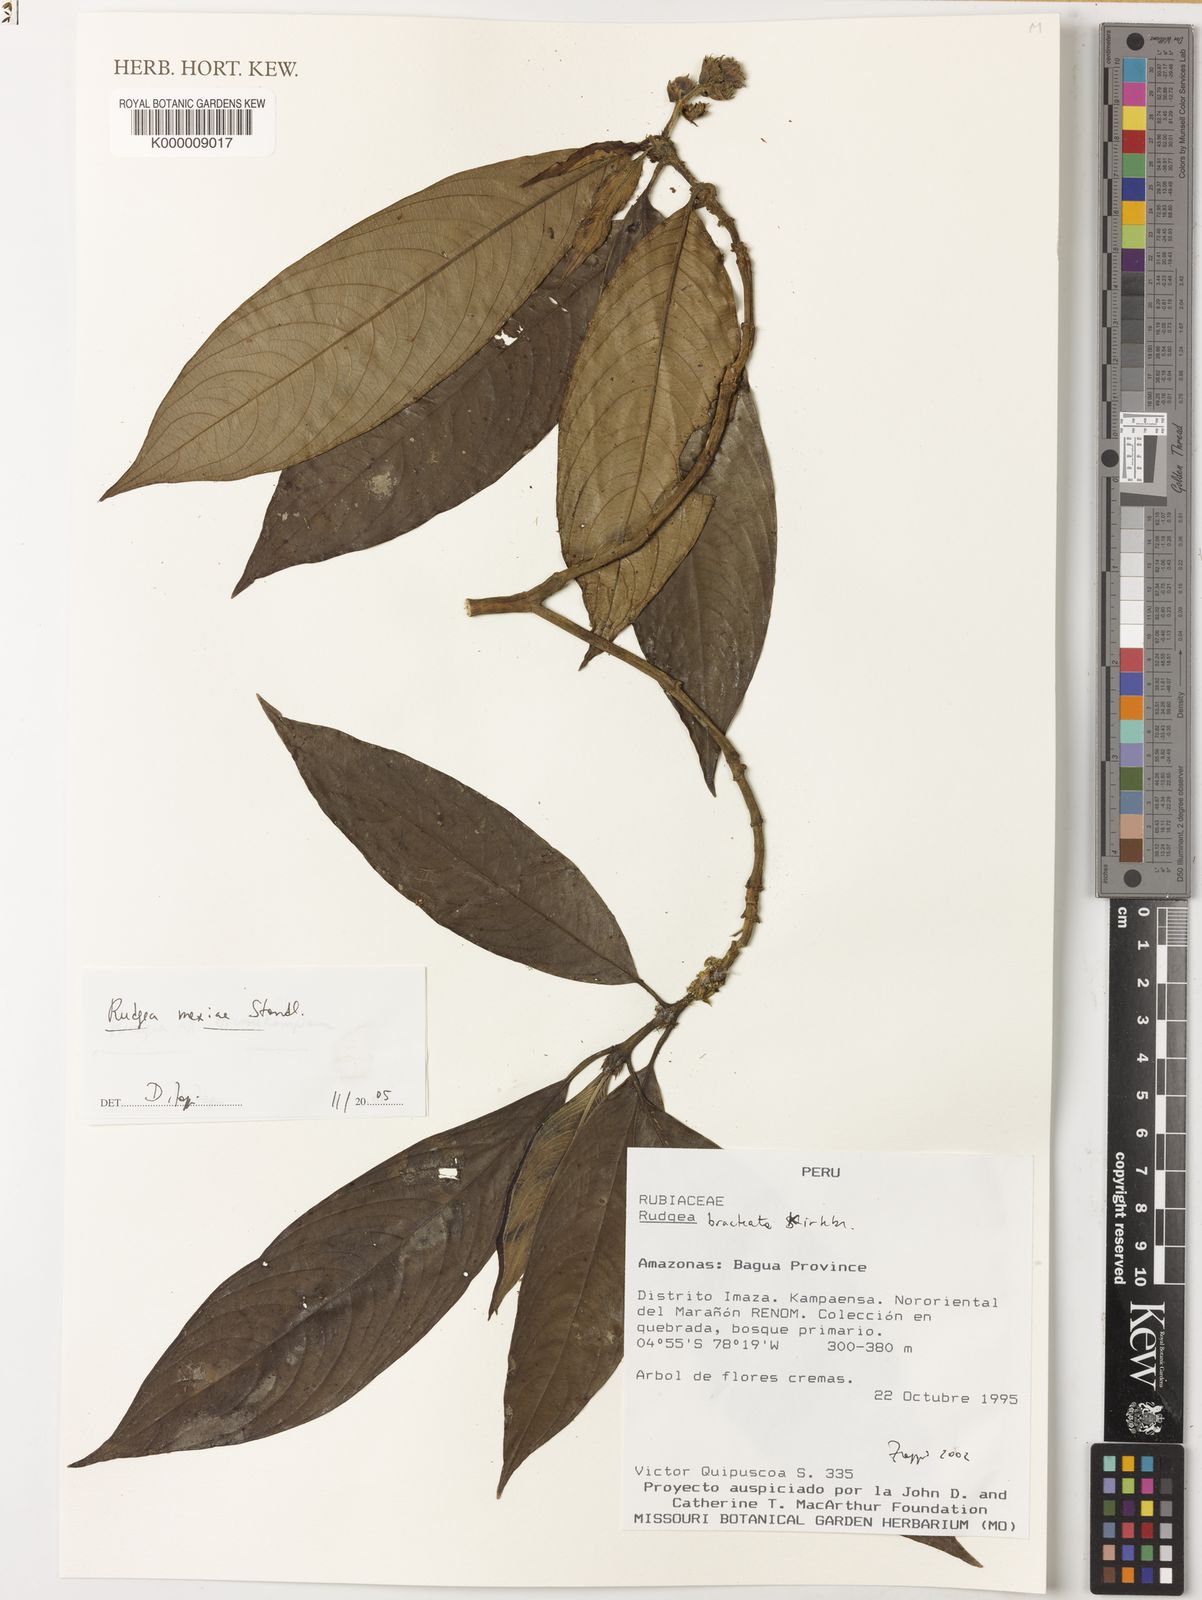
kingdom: Plantae
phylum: Tracheophyta
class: Magnoliopsida
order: Gentianales
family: Rubiaceae
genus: Palicourea
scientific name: Palicourea yneziae
